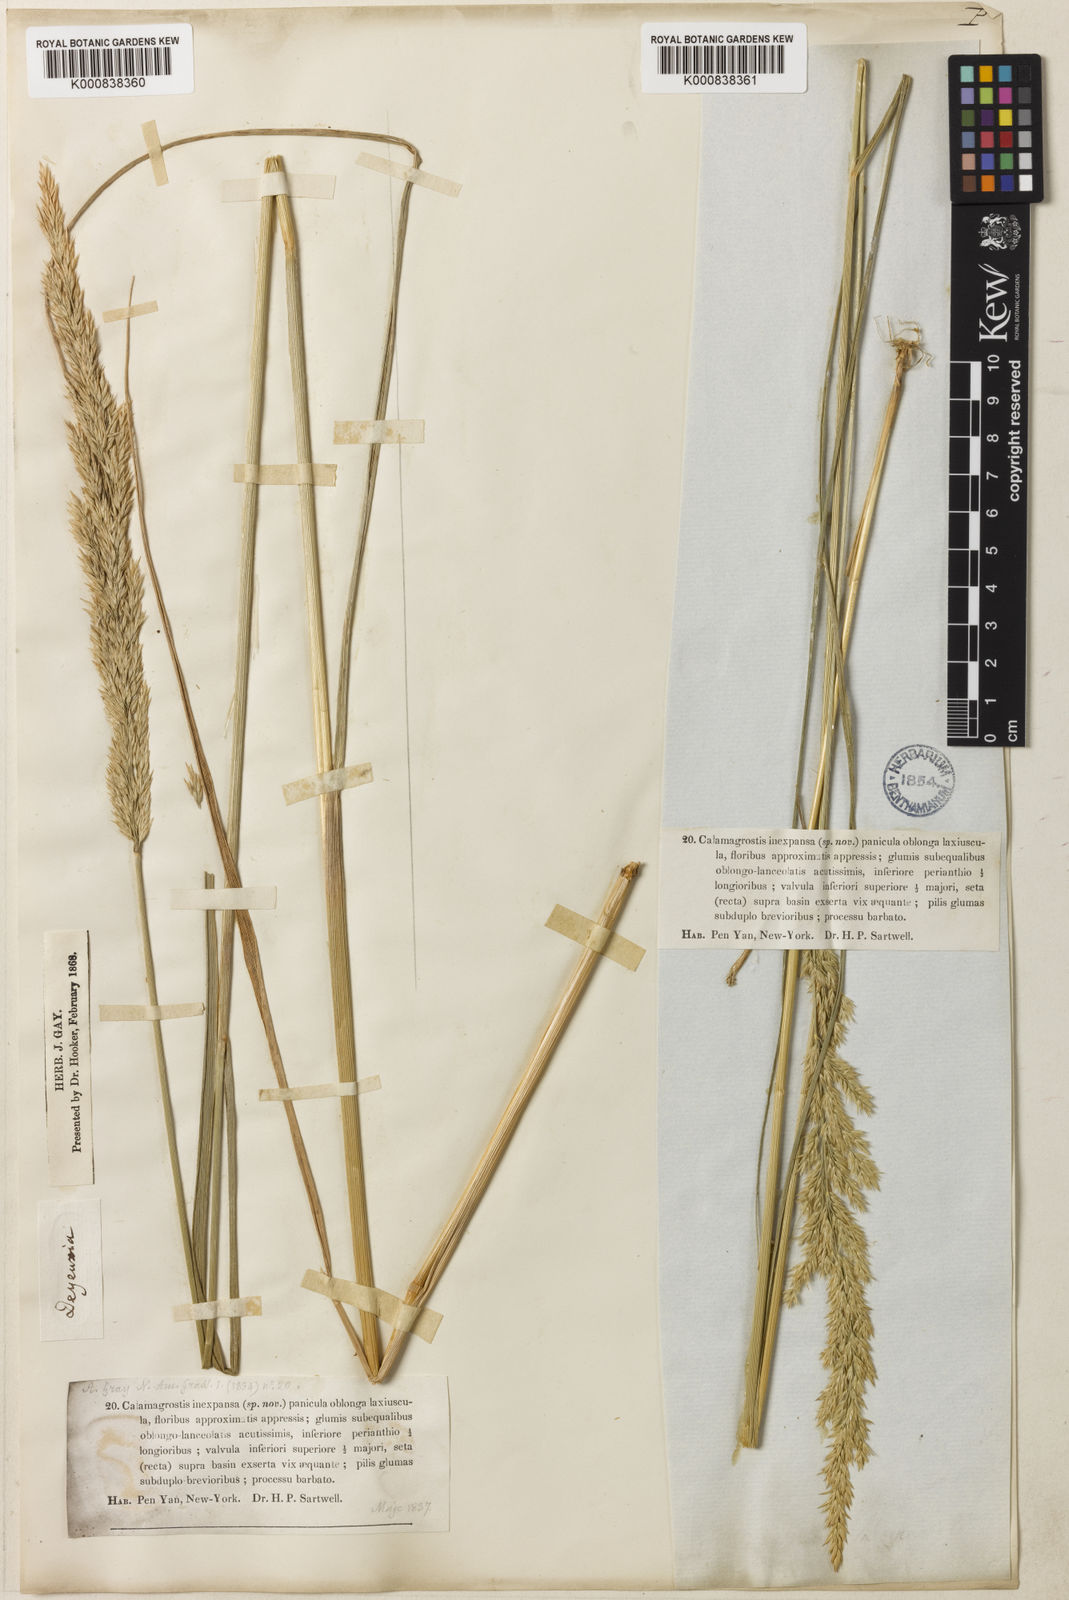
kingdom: Plantae
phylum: Tracheophyta
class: Liliopsida
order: Poales
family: Poaceae
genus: Calamagrostis
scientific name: Calamagrostis inexpansa
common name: Northern reedgrass
